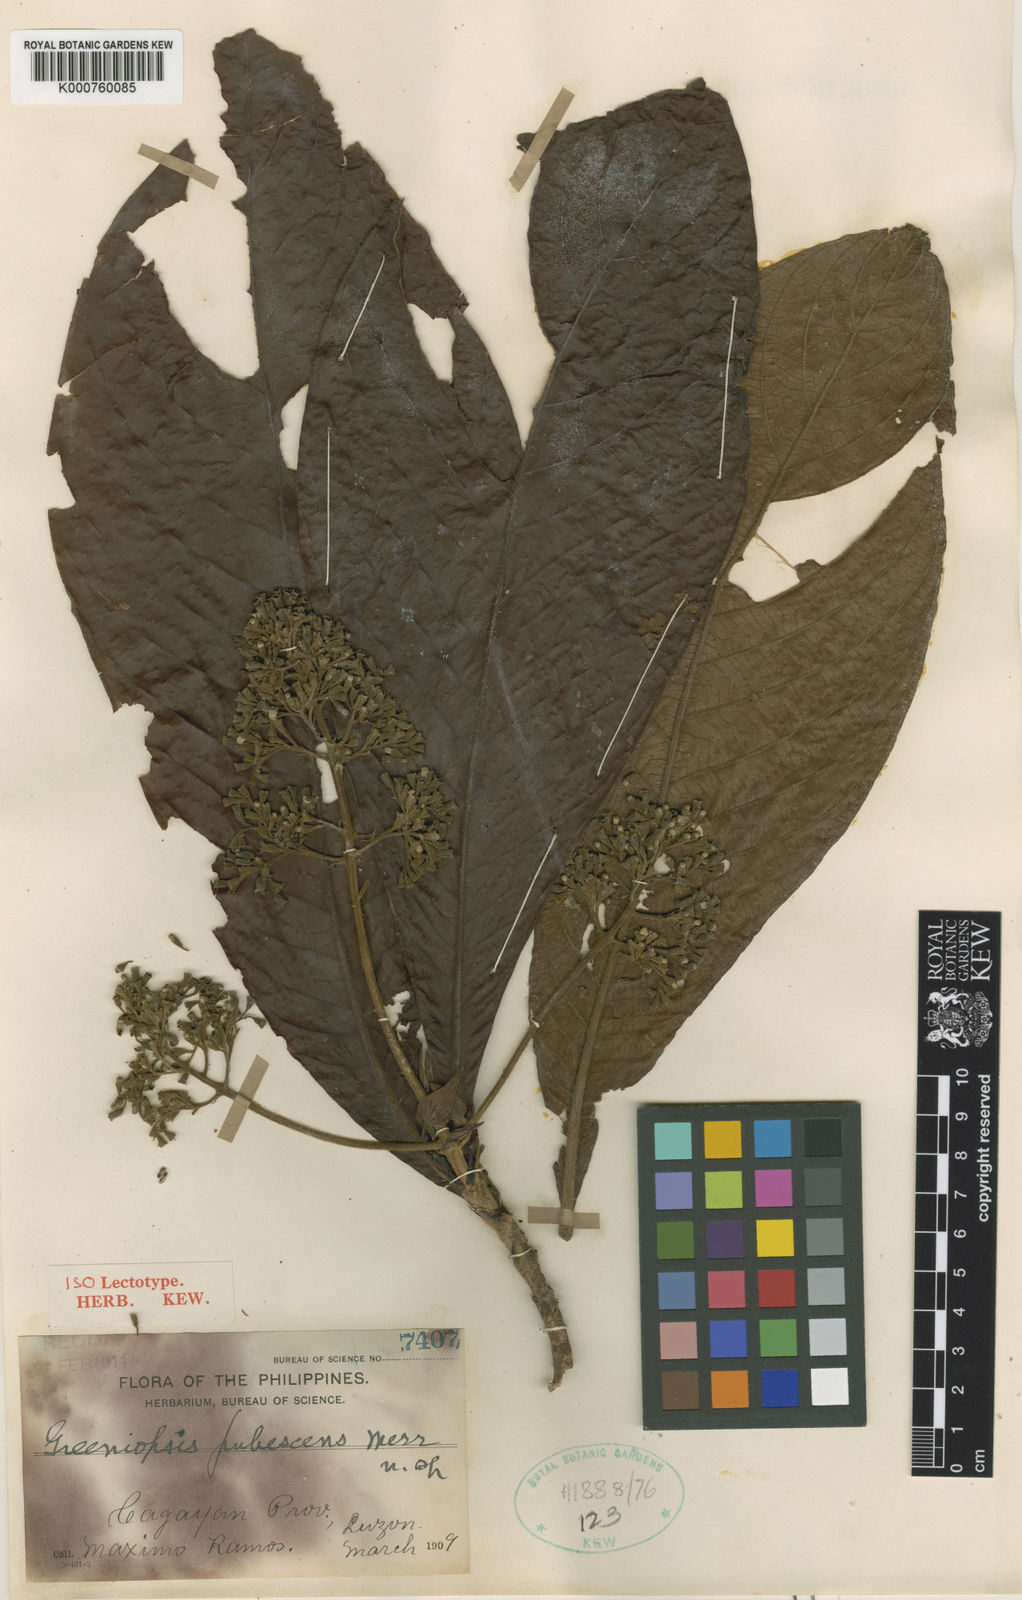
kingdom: Plantae
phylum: Tracheophyta
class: Magnoliopsida
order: Gentianales
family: Rubiaceae
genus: Greeniopsis
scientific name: Greeniopsis pubescens
